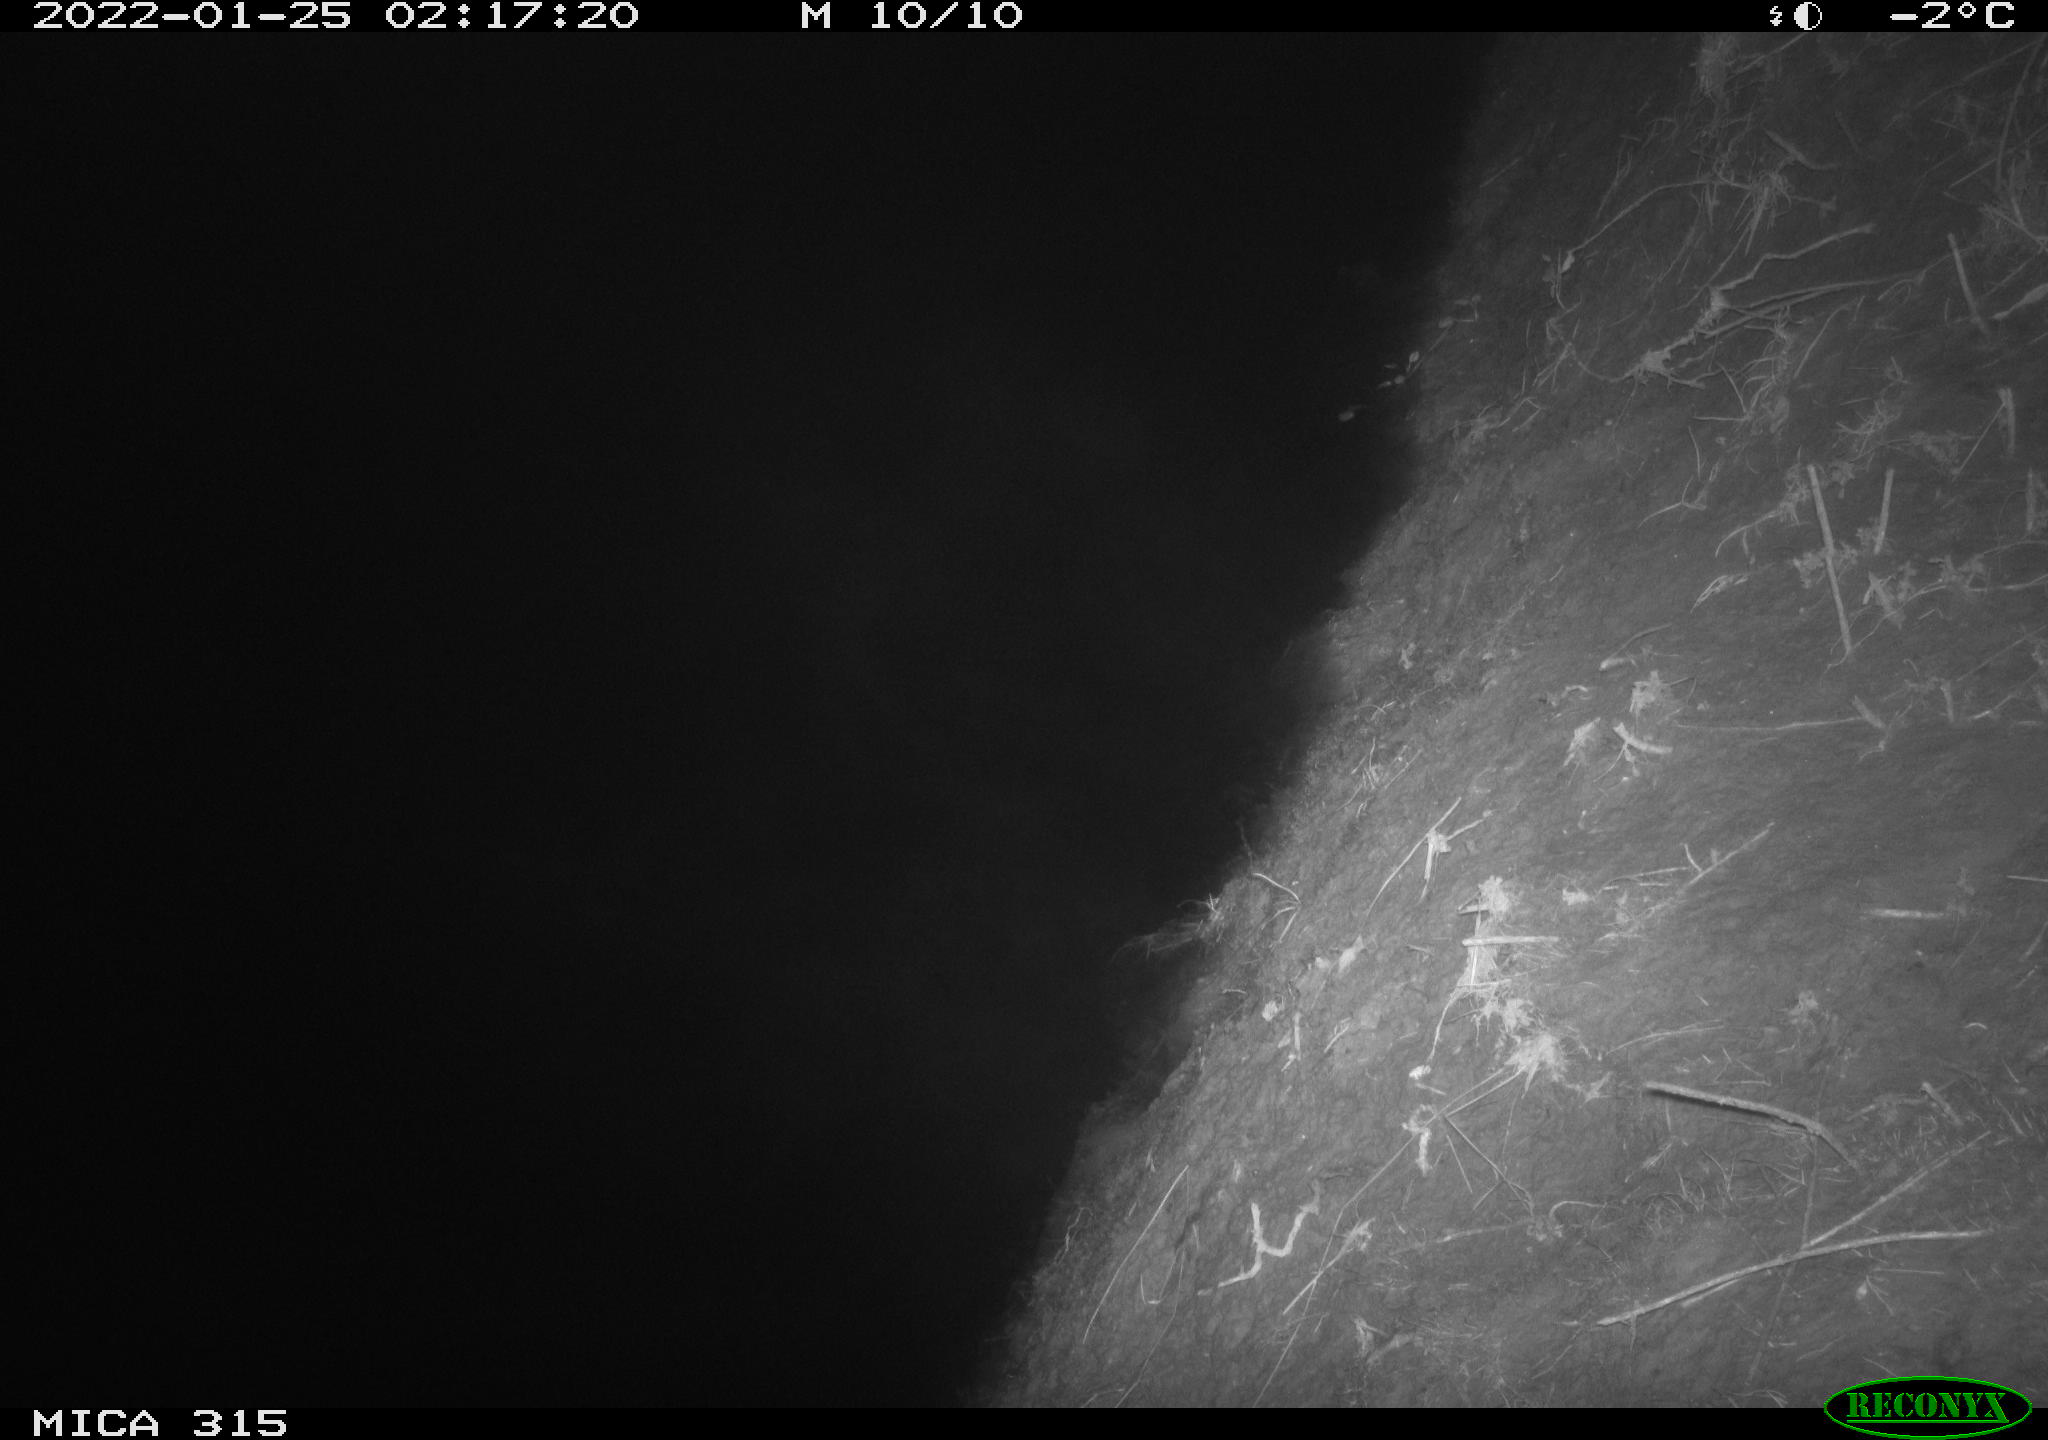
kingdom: Animalia
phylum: Chordata
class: Aves
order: Anseriformes
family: Anatidae
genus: Anas
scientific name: Anas
